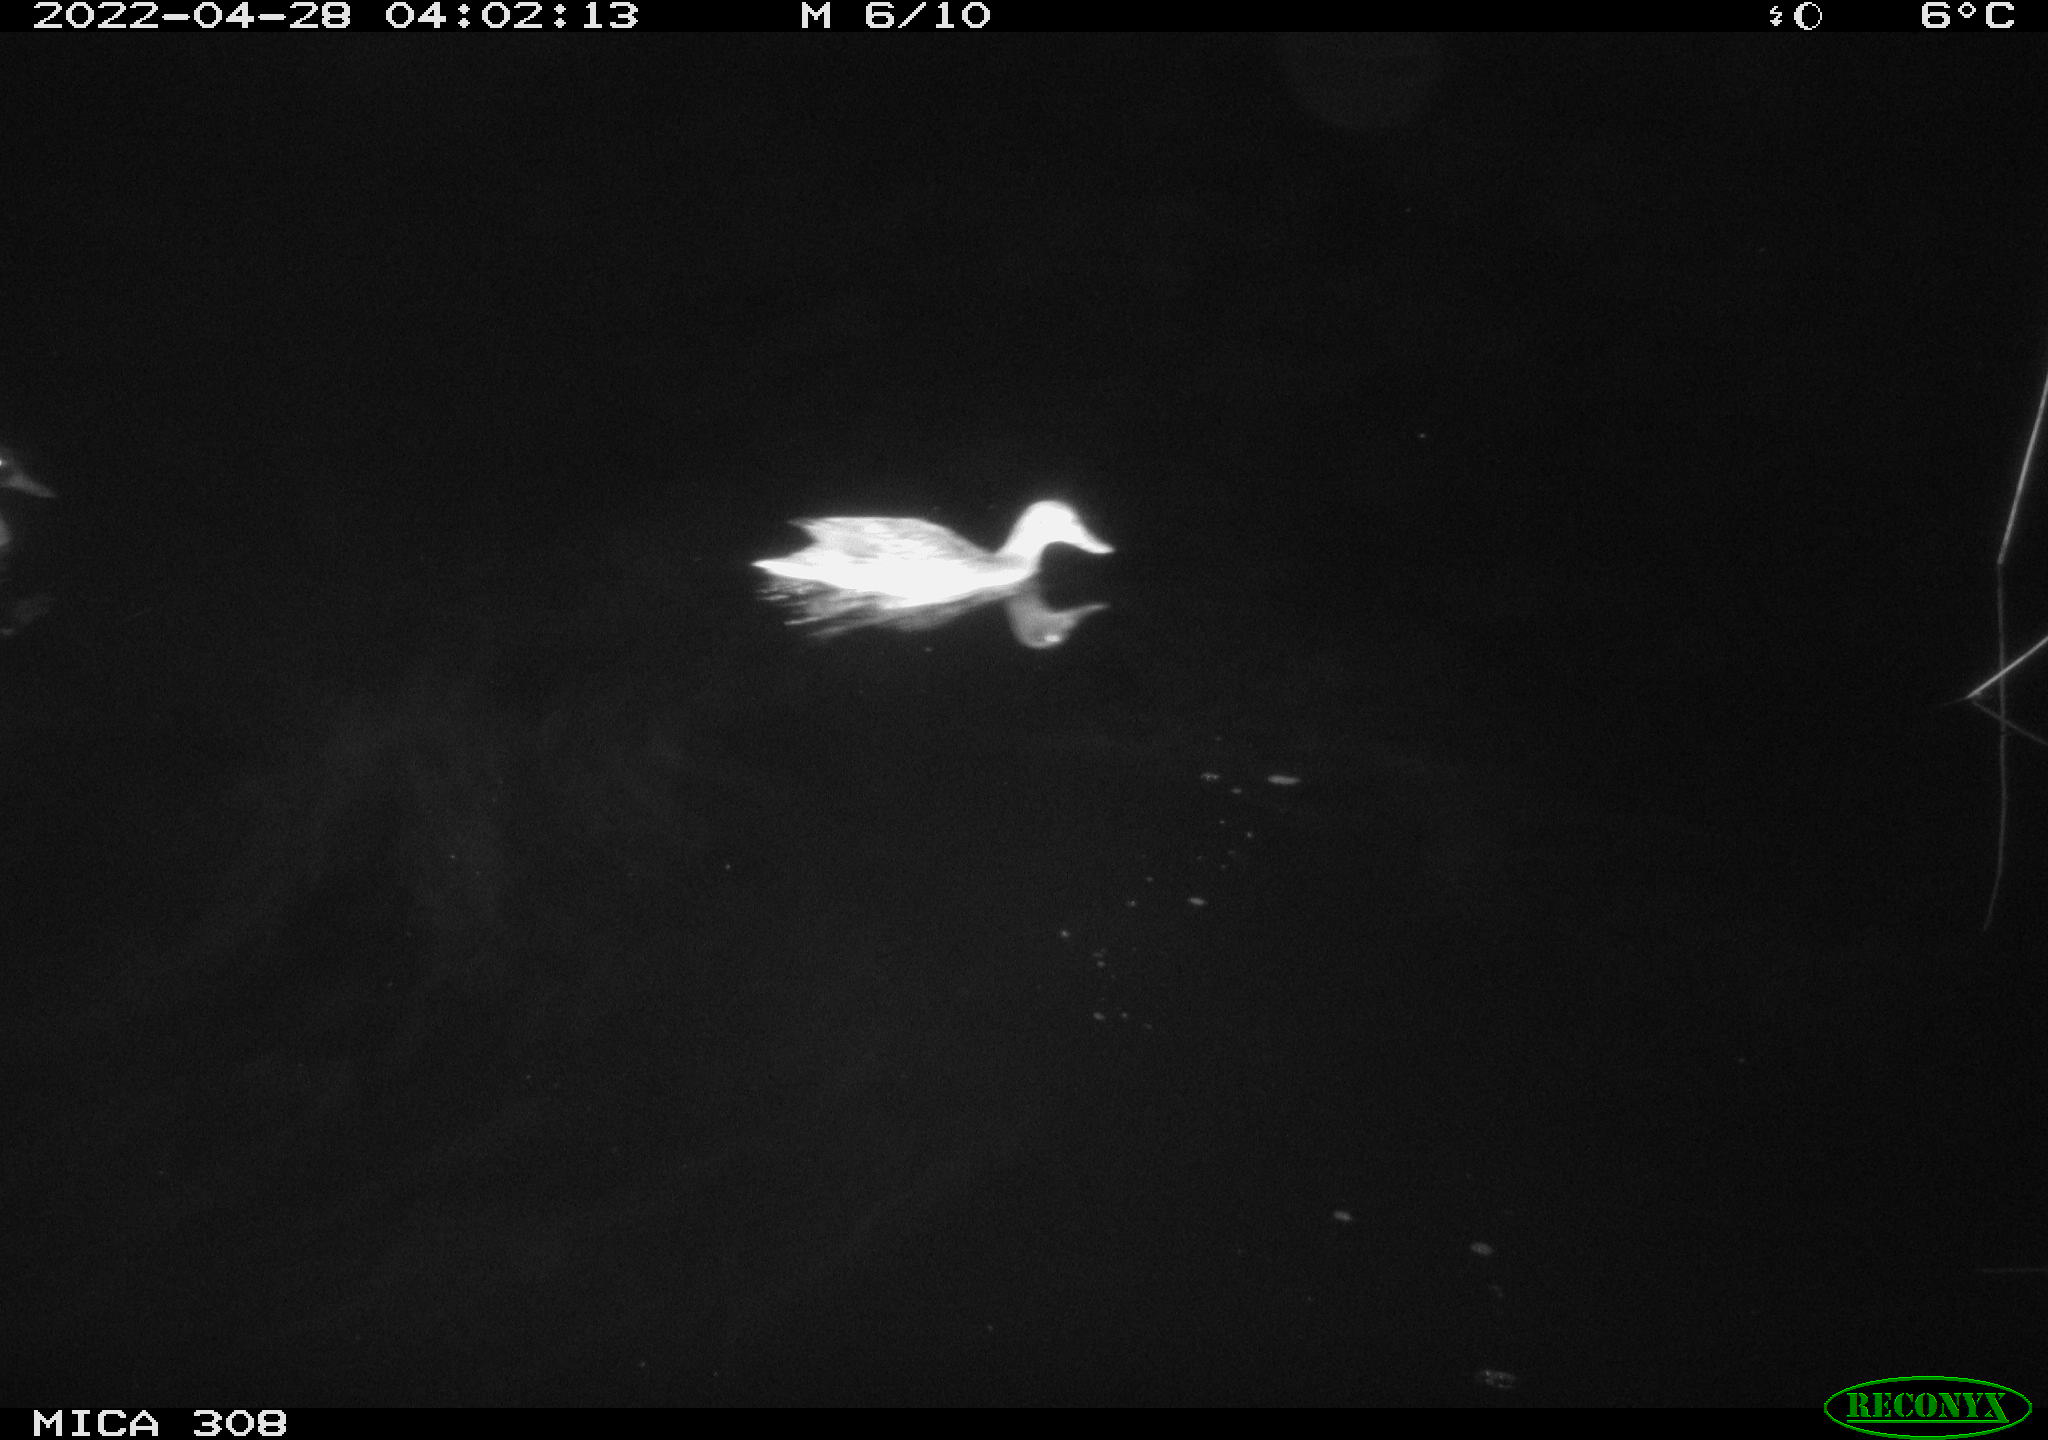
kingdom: Animalia
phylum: Chordata
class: Aves
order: Anseriformes
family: Anatidae
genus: Mareca
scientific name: Mareca strepera
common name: Gadwall
